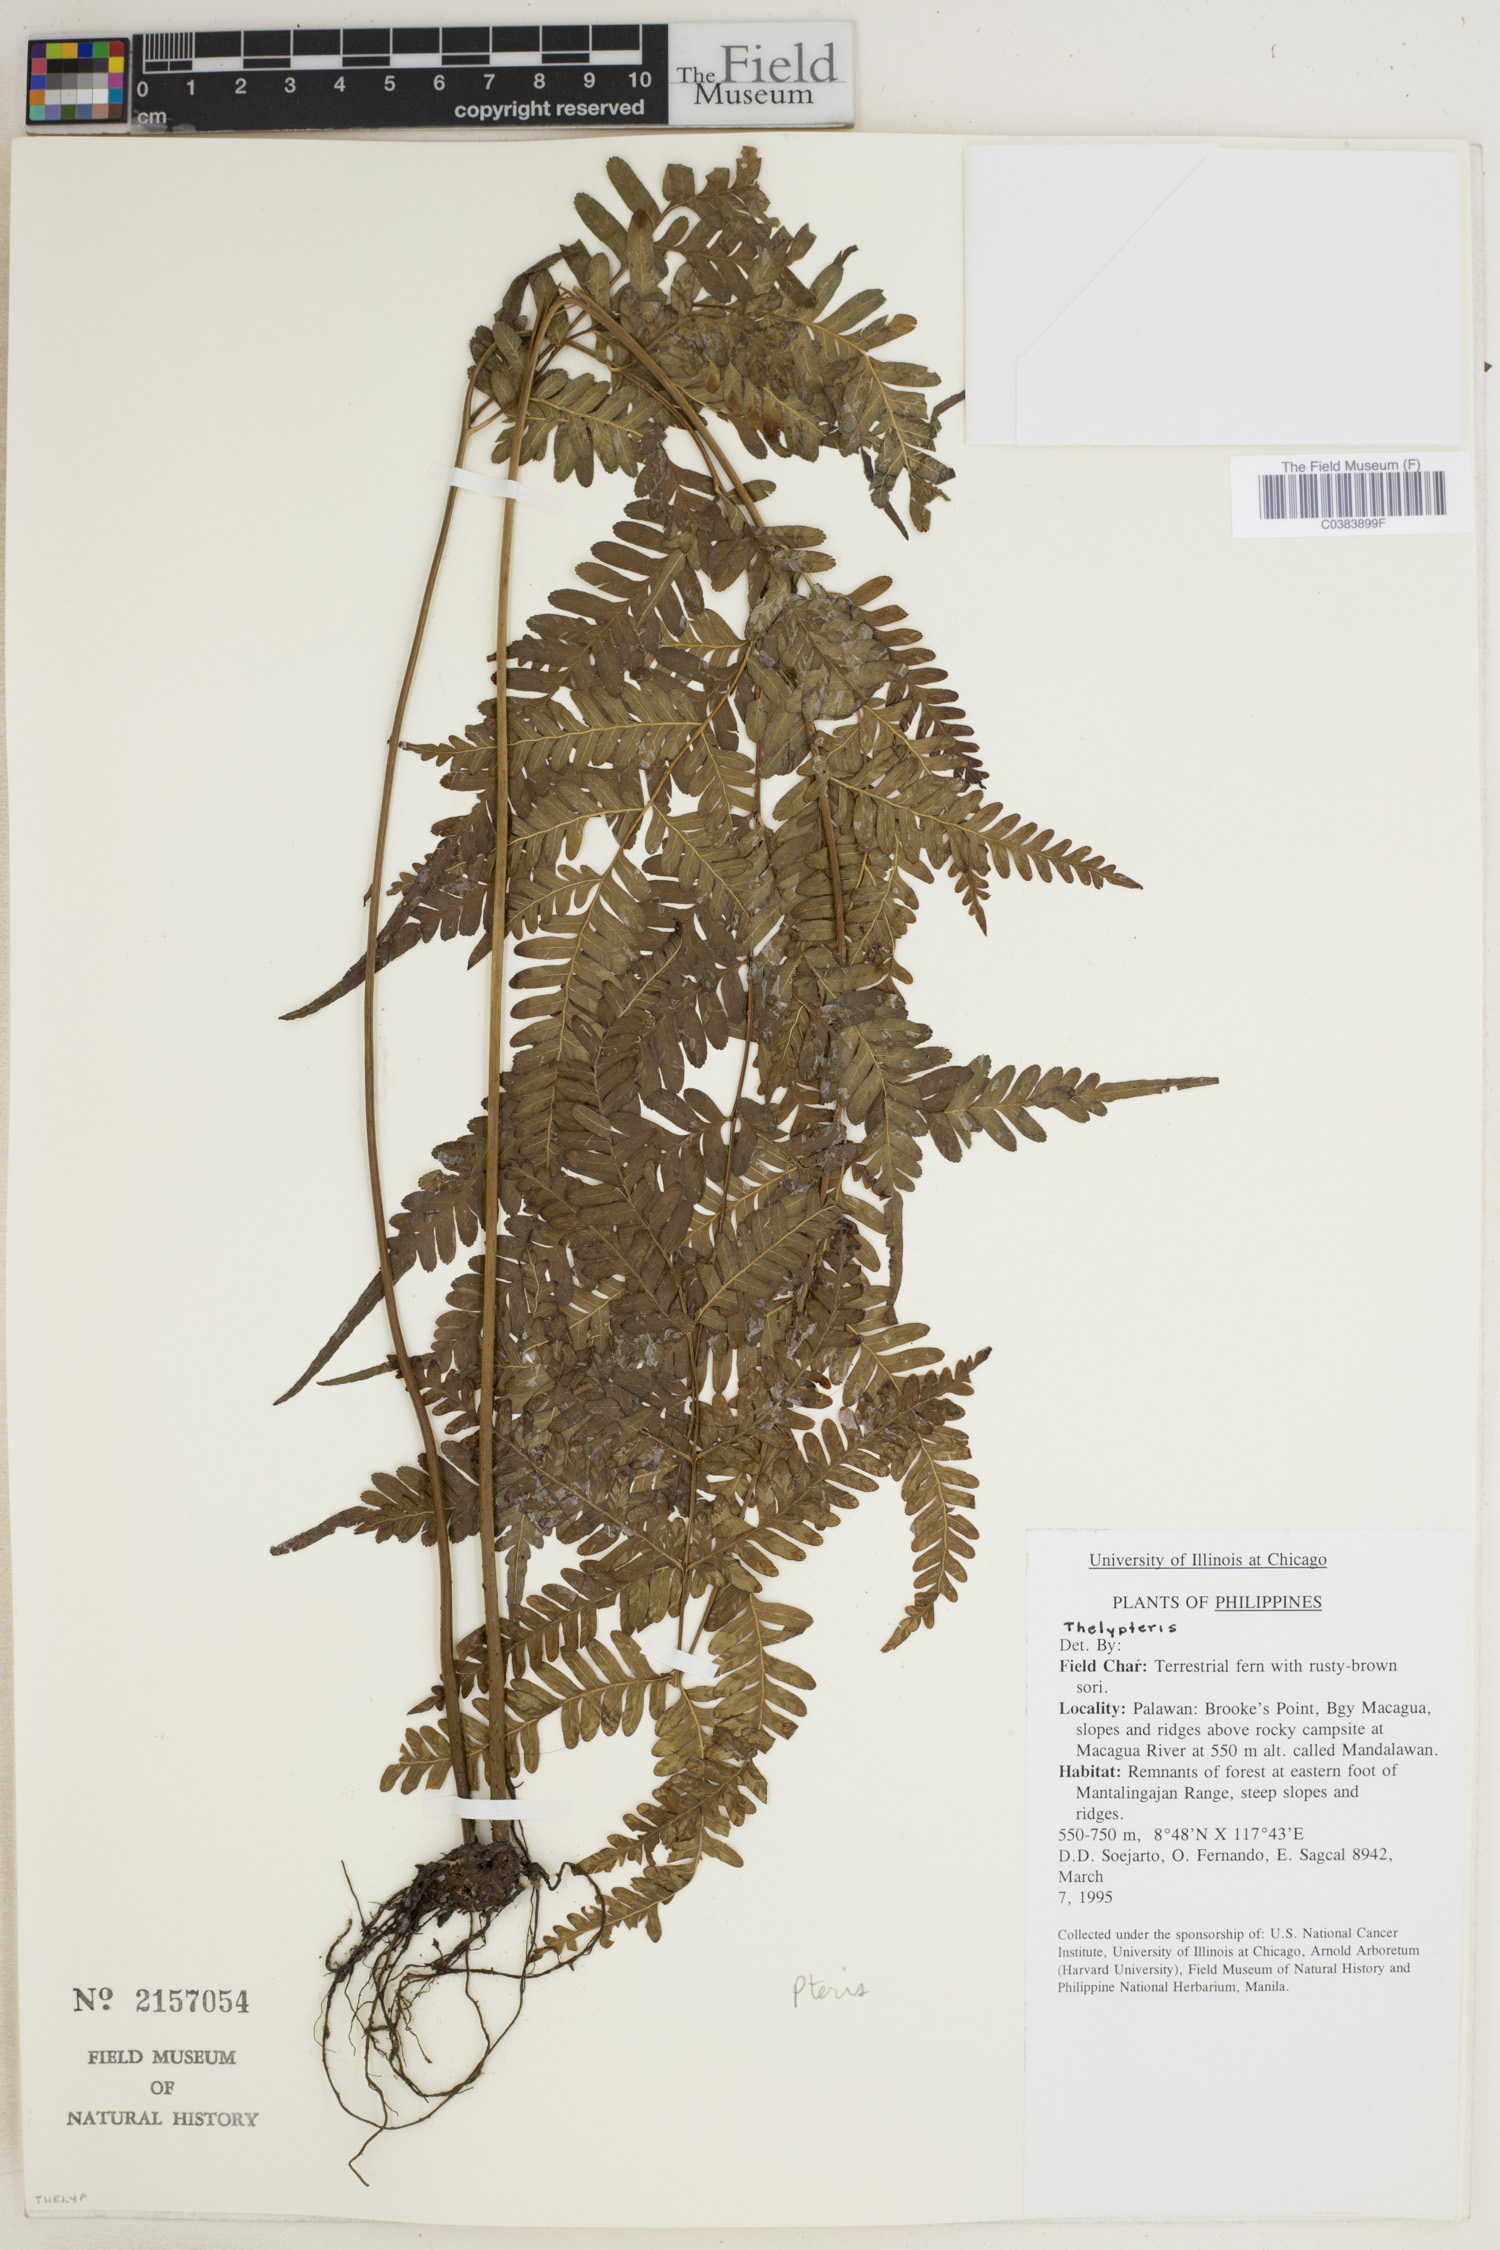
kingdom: Plantae
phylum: Tracheophyta
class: Polypodiopsida
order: Polypodiales
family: Thelypteridaceae
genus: Thelypteris
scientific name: Thelypteris
